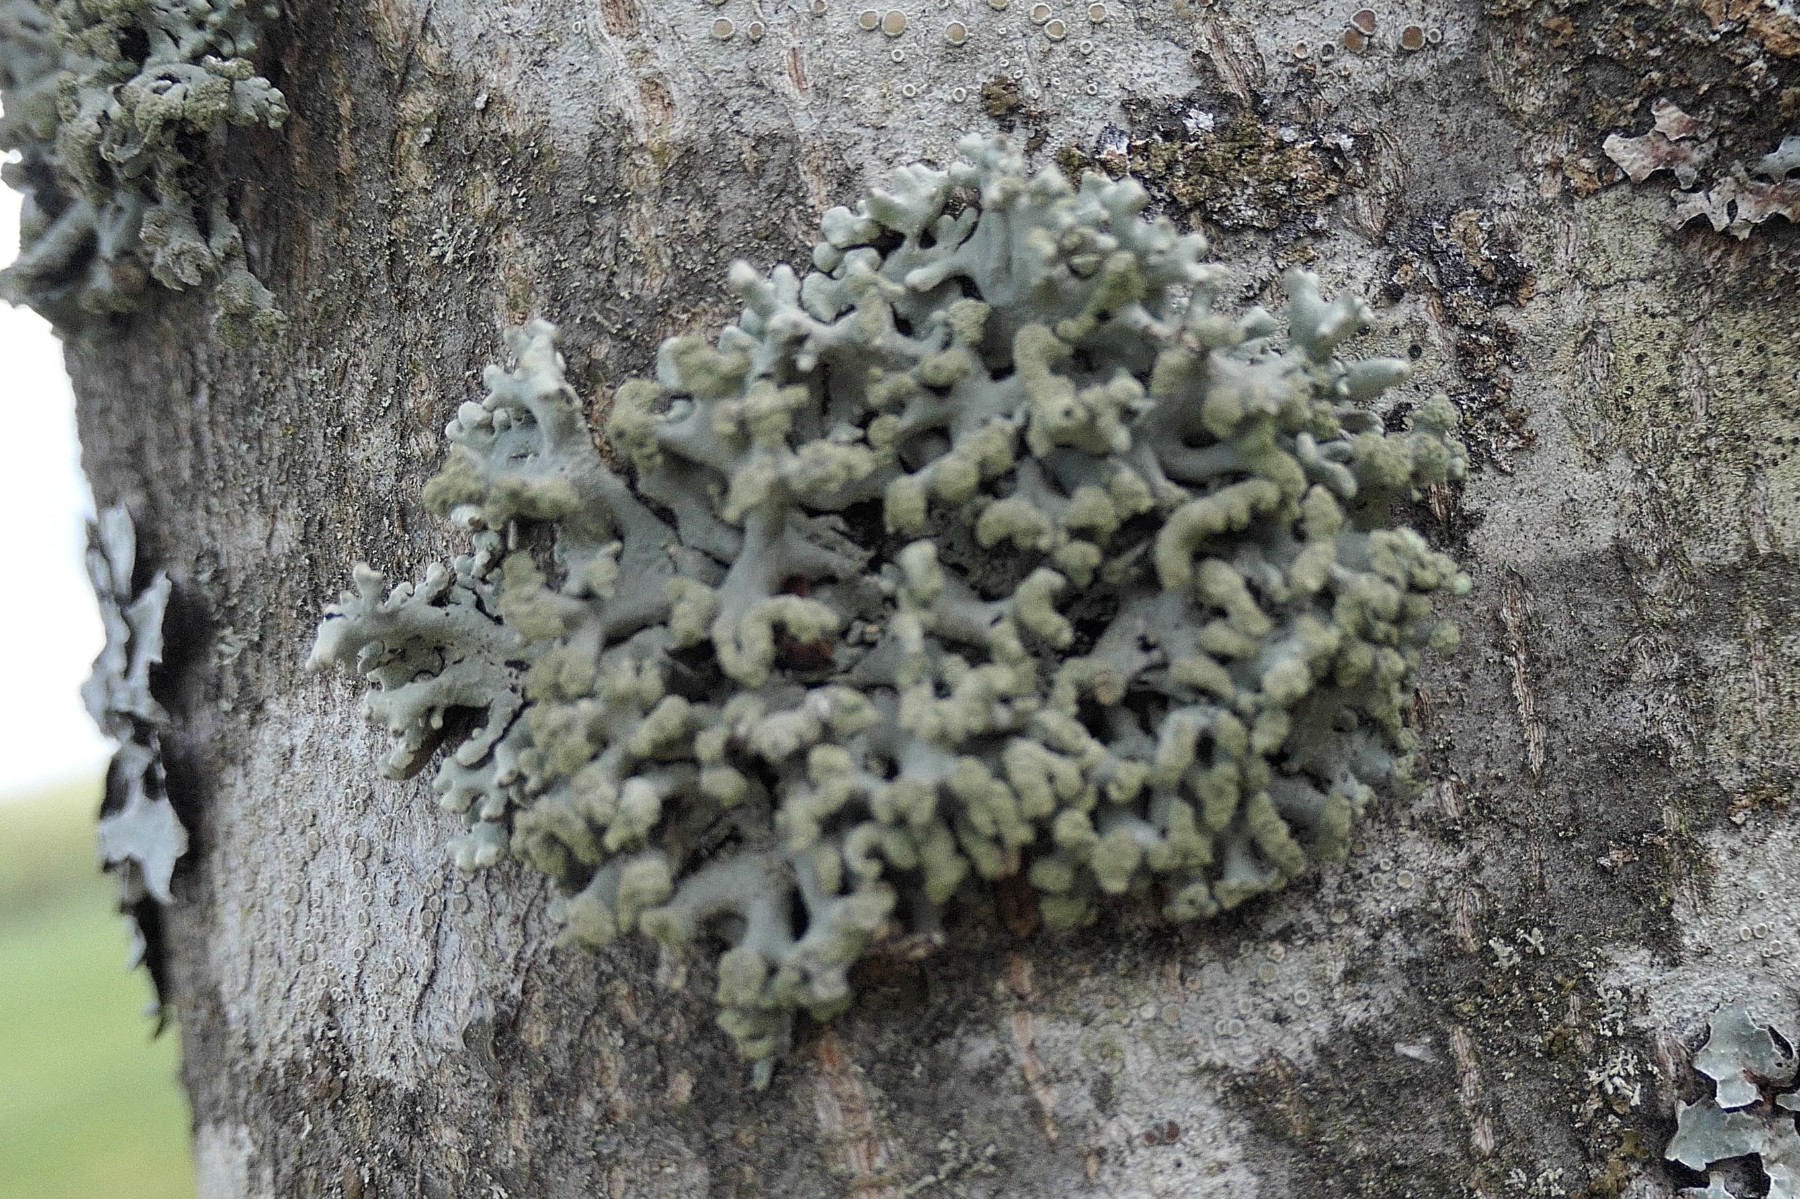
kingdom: Fungi
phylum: Ascomycota
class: Lecanoromycetes
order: Lecanorales
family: Parmeliaceae
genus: Hypogymnia
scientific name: Hypogymnia tubulosa
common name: finger-kvistlav
